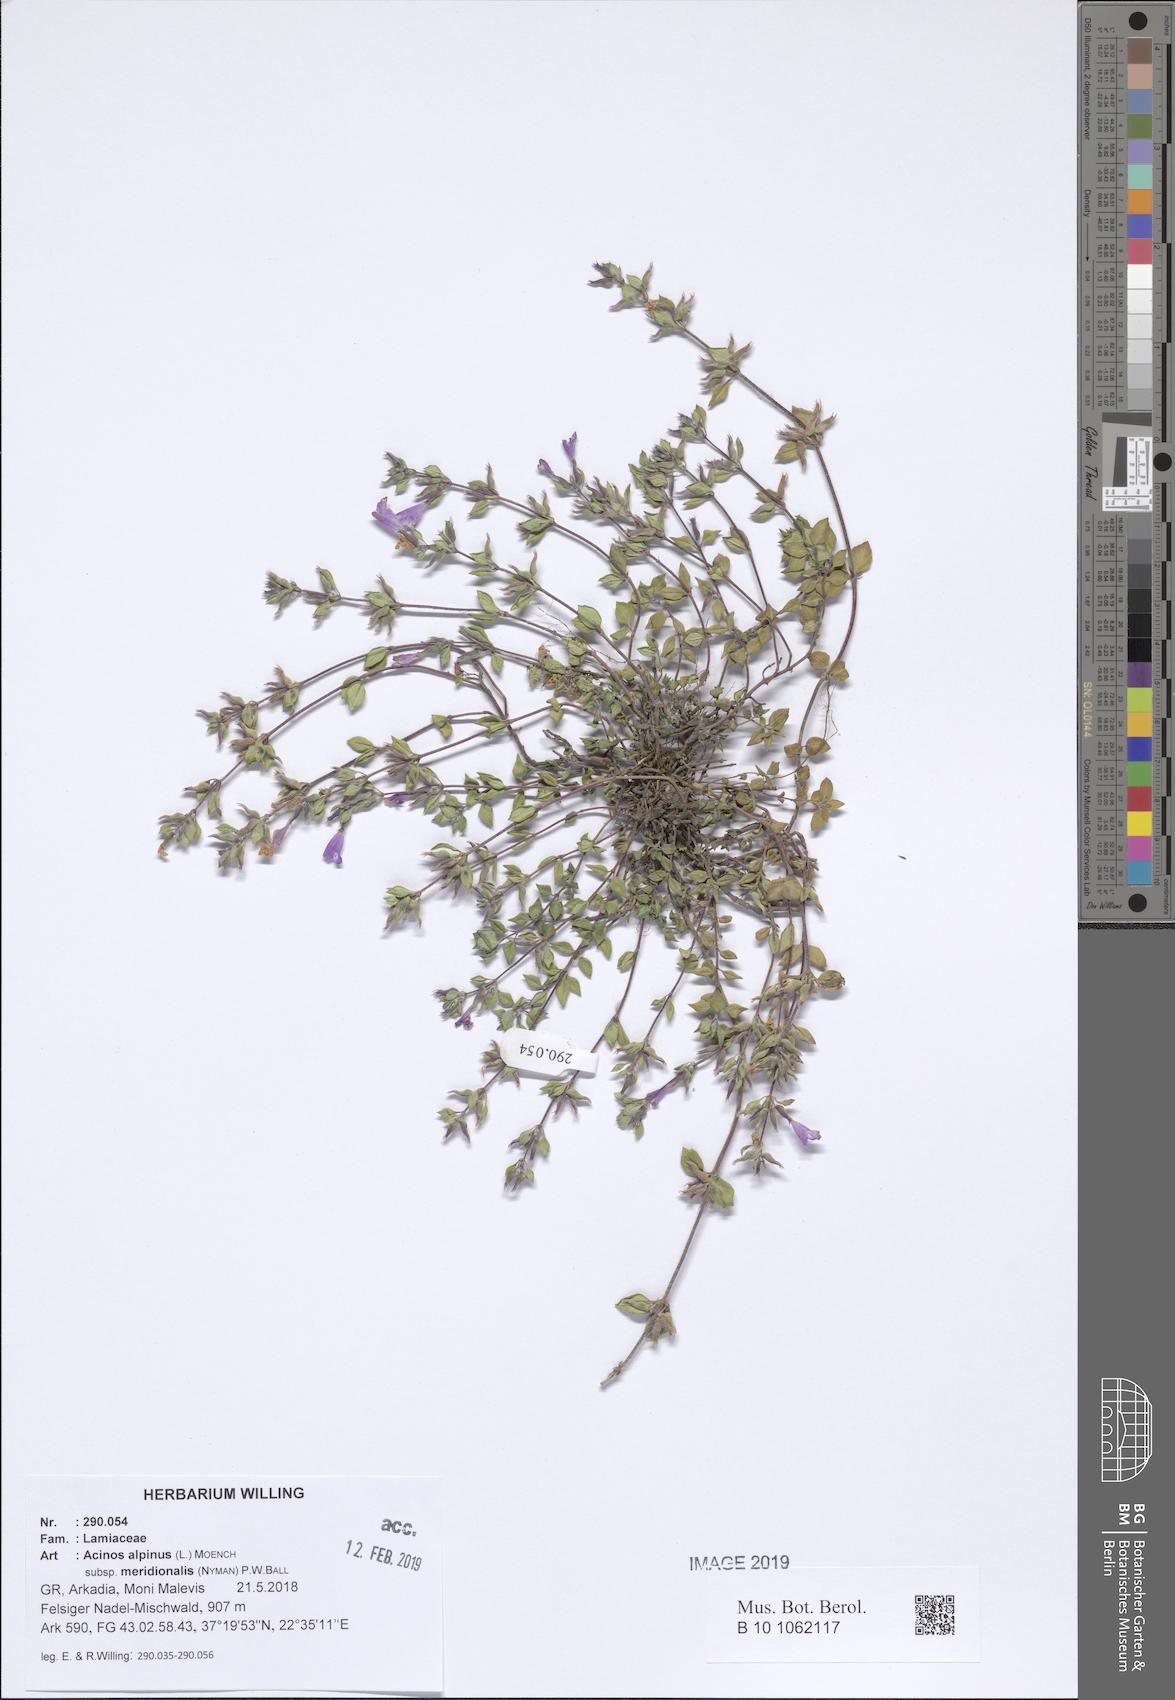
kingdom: Plantae
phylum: Tracheophyta
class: Magnoliopsida
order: Lamiales
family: Lamiaceae
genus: Clinopodium
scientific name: Clinopodium alpinum
